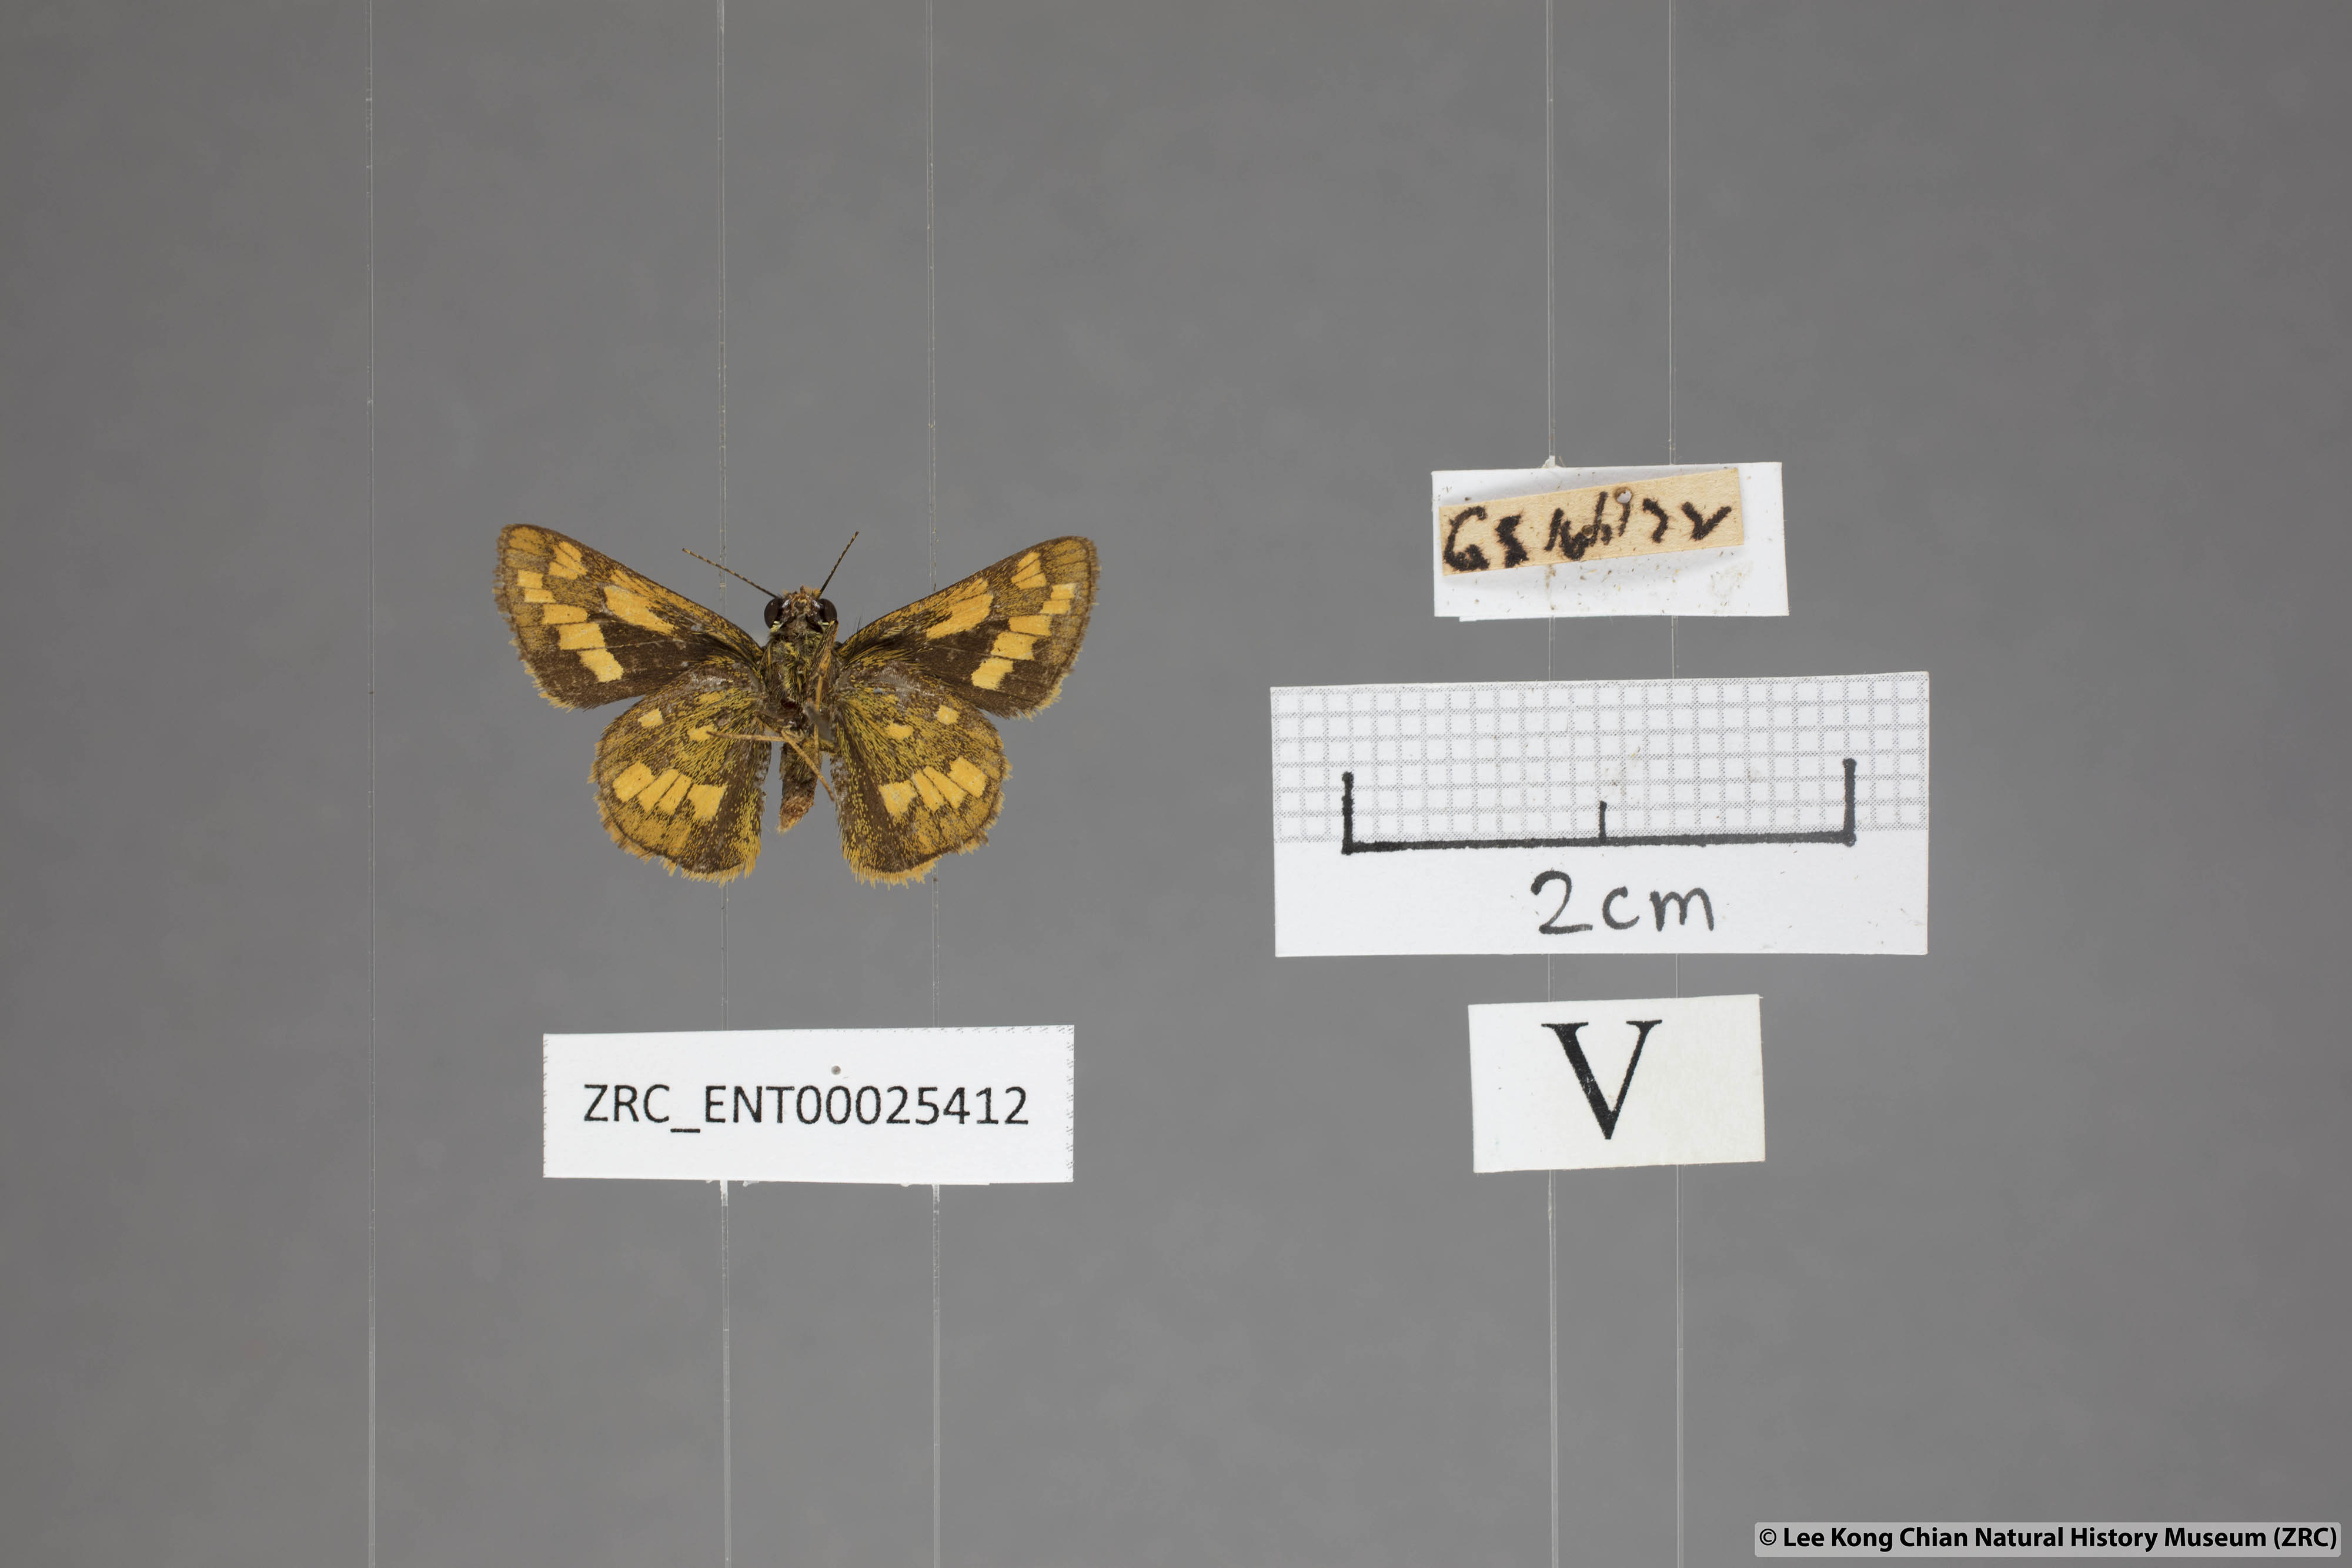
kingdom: Animalia
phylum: Arthropoda
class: Insecta
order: Lepidoptera
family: Hesperiidae
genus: Potanthus
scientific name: Potanthus omaha
